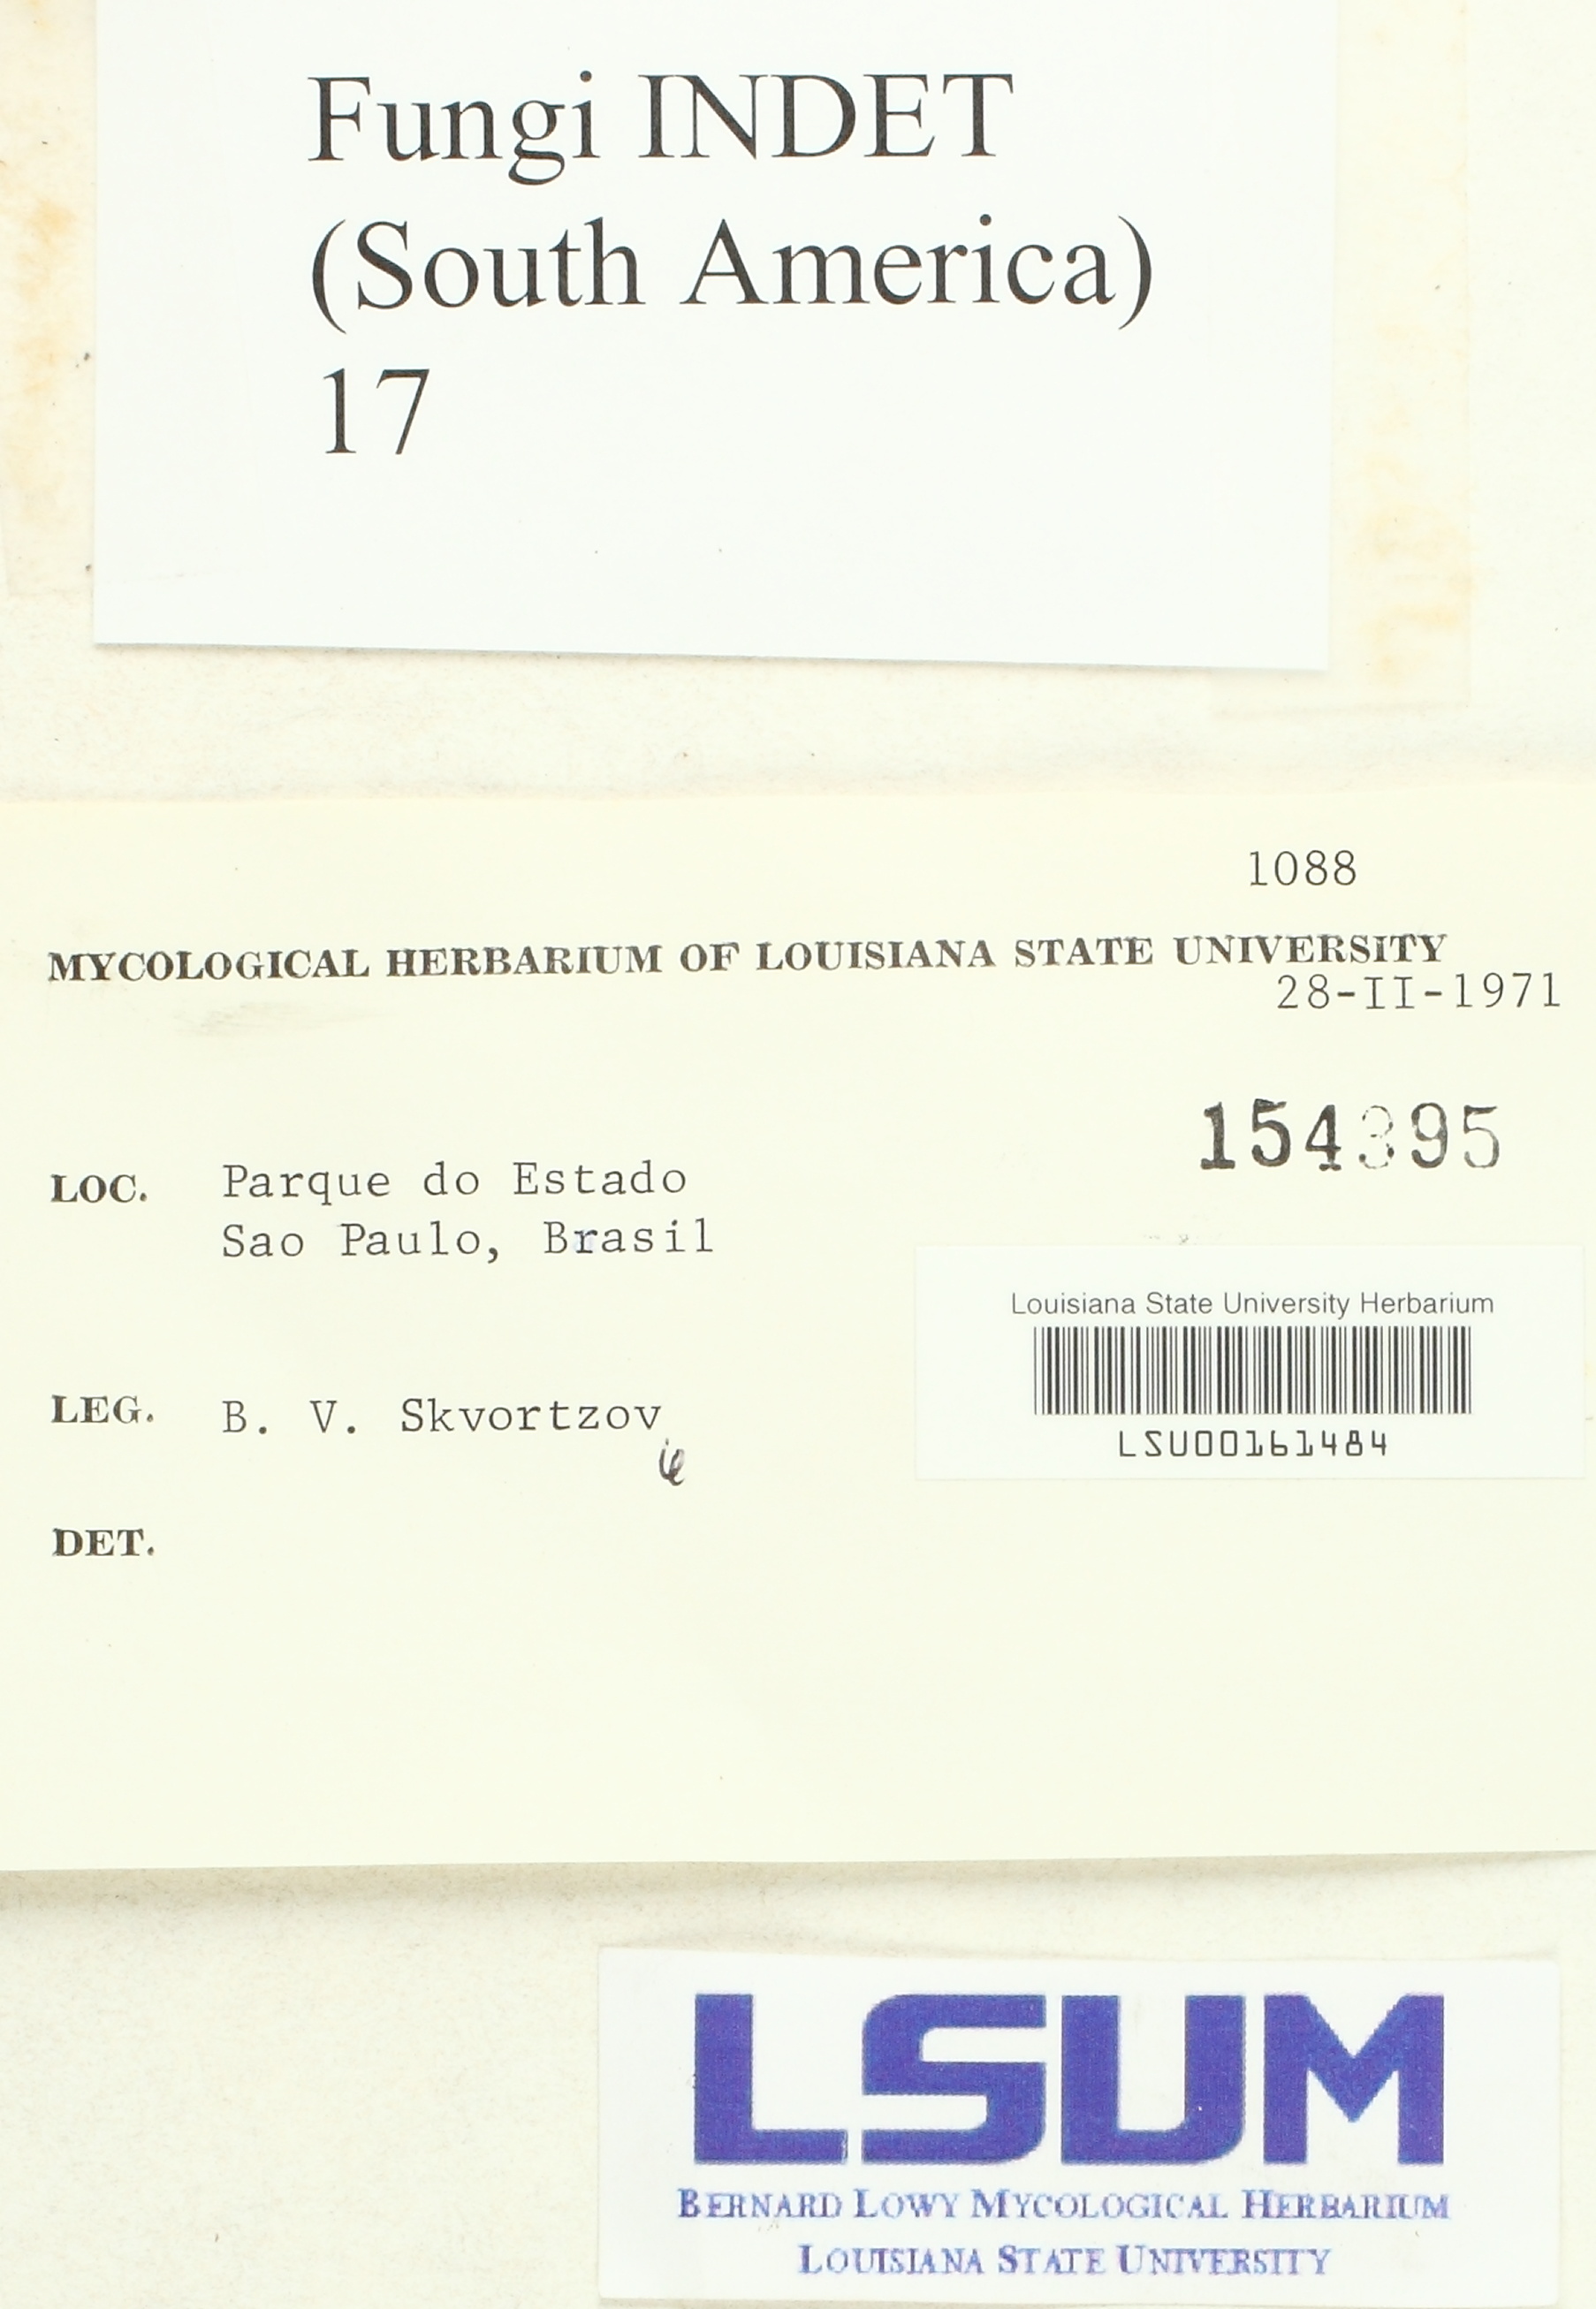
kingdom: Fungi
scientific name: Fungi
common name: Fungi
